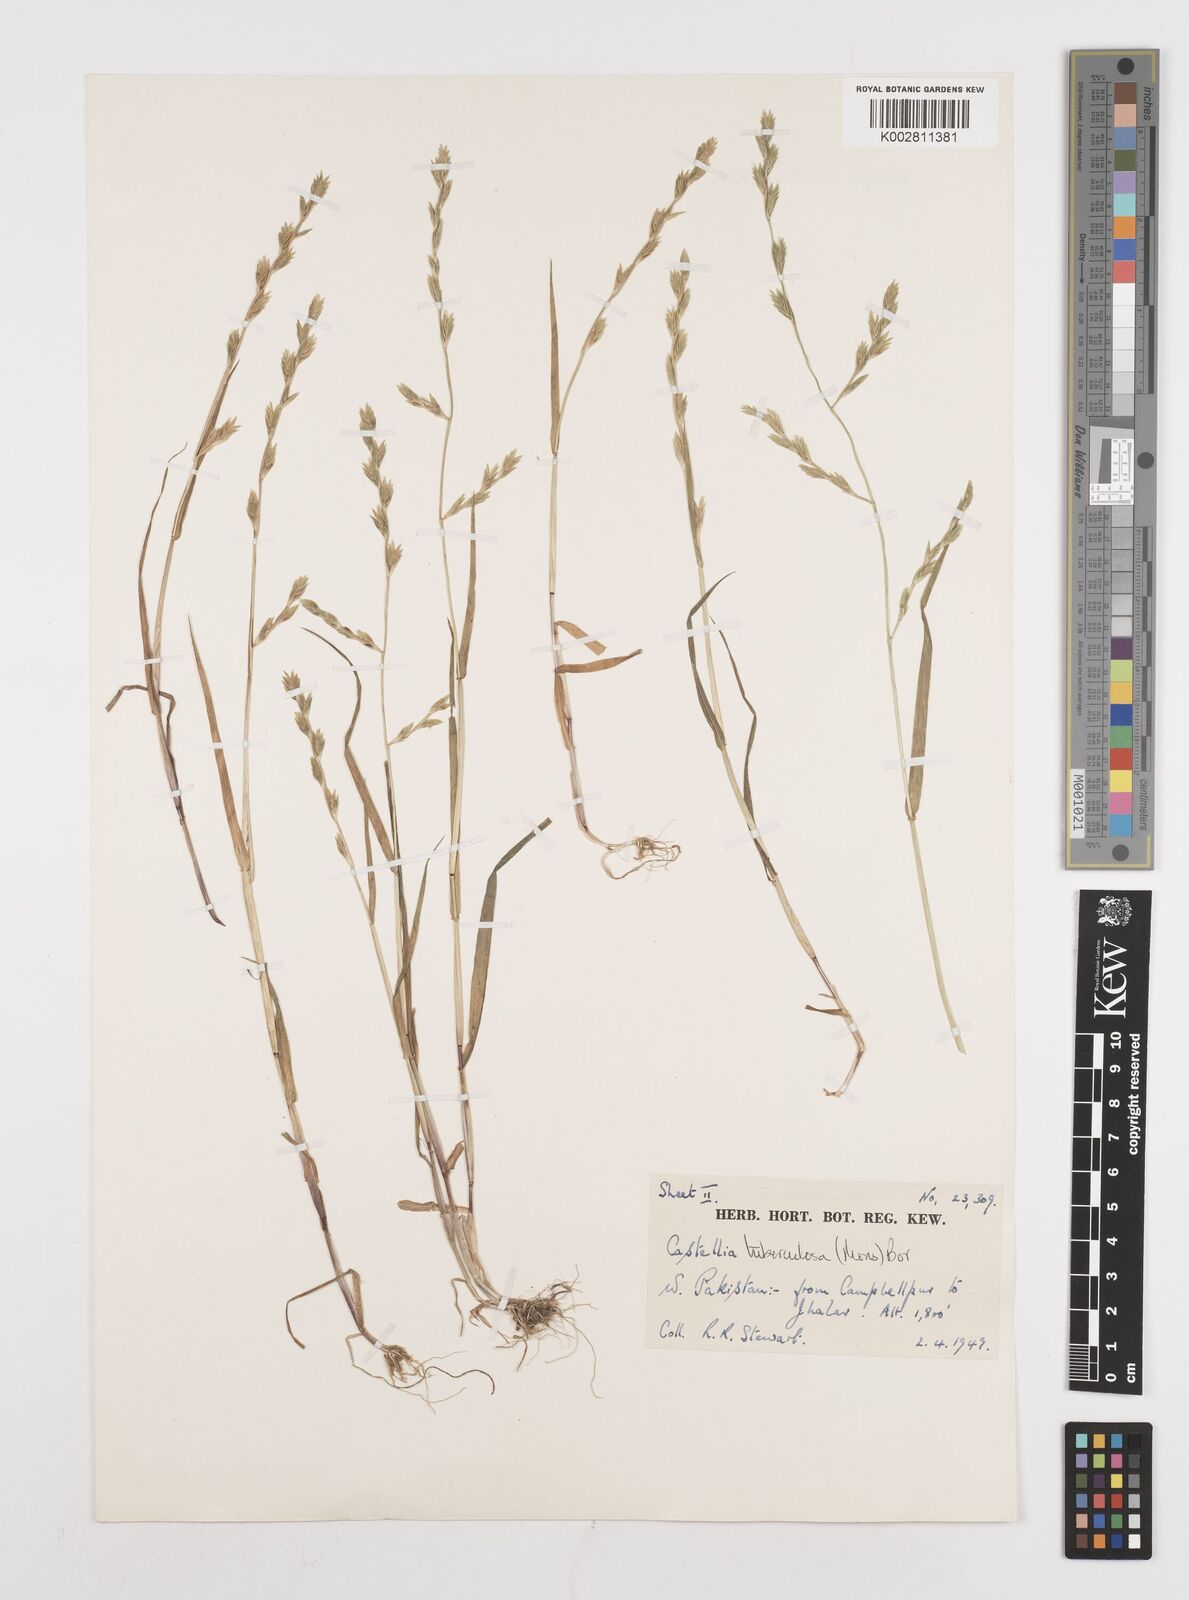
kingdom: Plantae
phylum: Tracheophyta
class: Liliopsida
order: Poales
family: Poaceae
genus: Castellia
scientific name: Castellia tuberculosa
